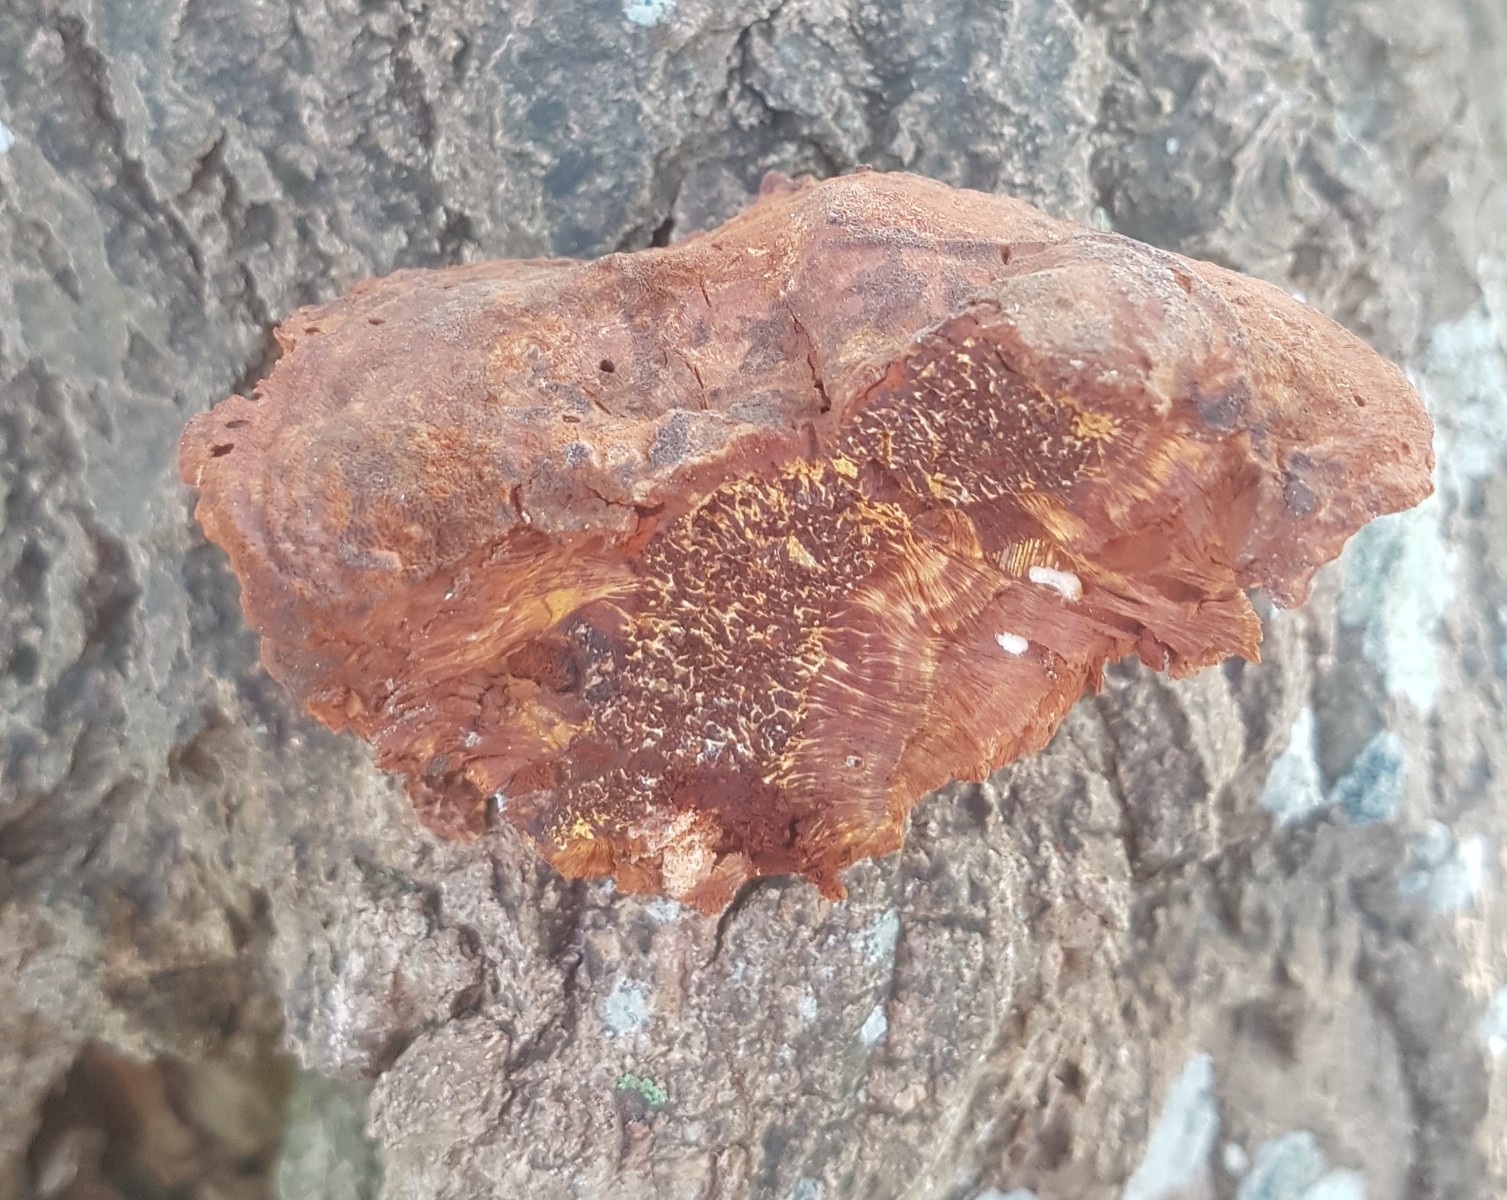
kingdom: Fungi
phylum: Basidiomycota
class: Agaricomycetes
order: Hymenochaetales
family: Hymenochaetaceae
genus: Inocutis
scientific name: Inocutis rheades
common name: ræve-spejlporesvamp
